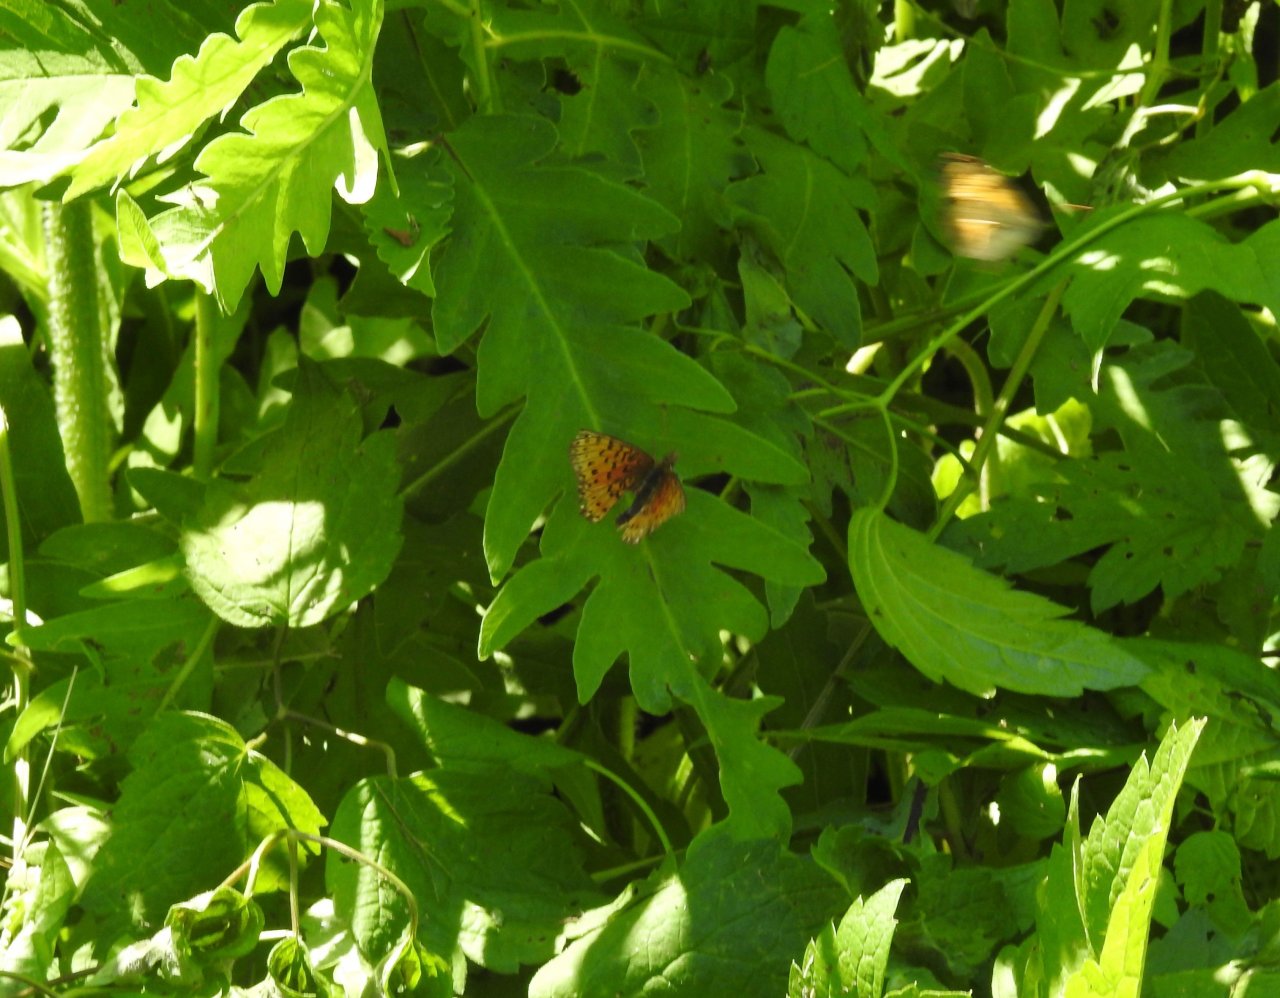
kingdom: Animalia
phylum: Arthropoda
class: Insecta
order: Lepidoptera
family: Nymphalidae
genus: Boloria
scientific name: Boloria selene
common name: Silver-bordered Fritillary
